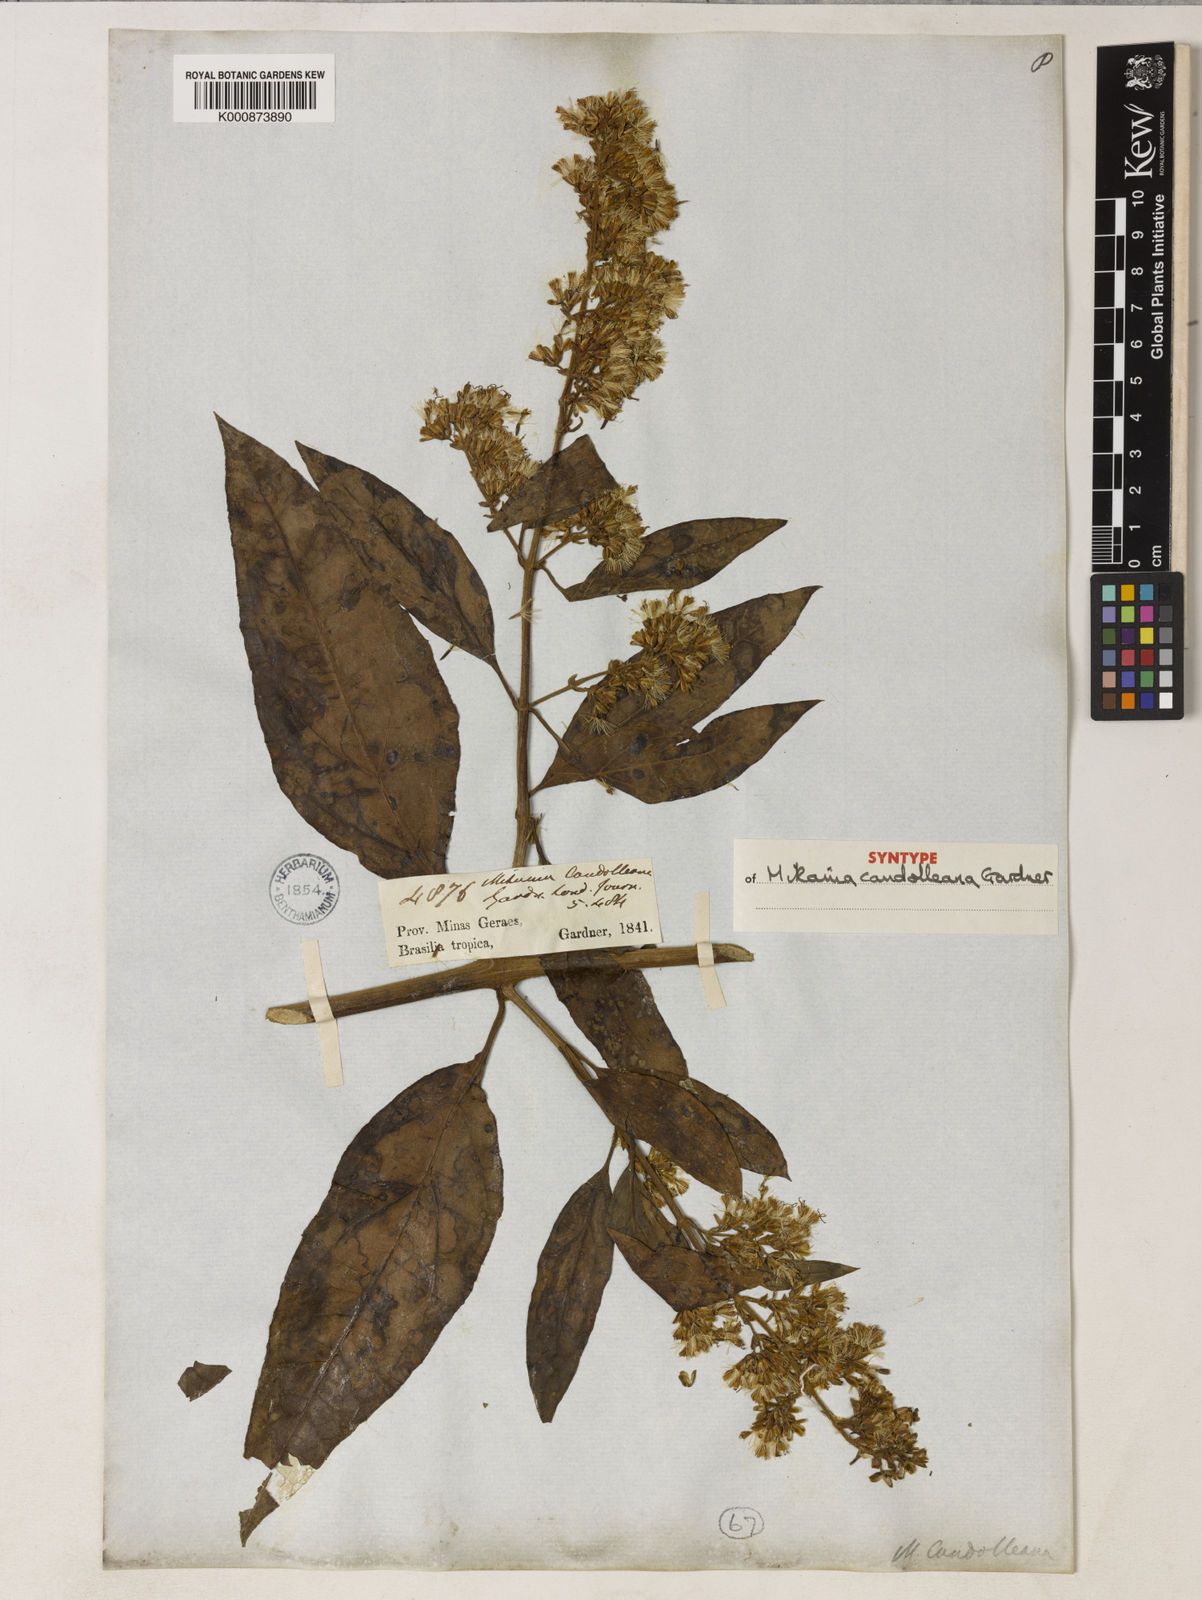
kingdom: Plantae
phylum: Tracheophyta
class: Magnoliopsida
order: Asterales
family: Asteraceae
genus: Mikania
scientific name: Mikania candolleana
